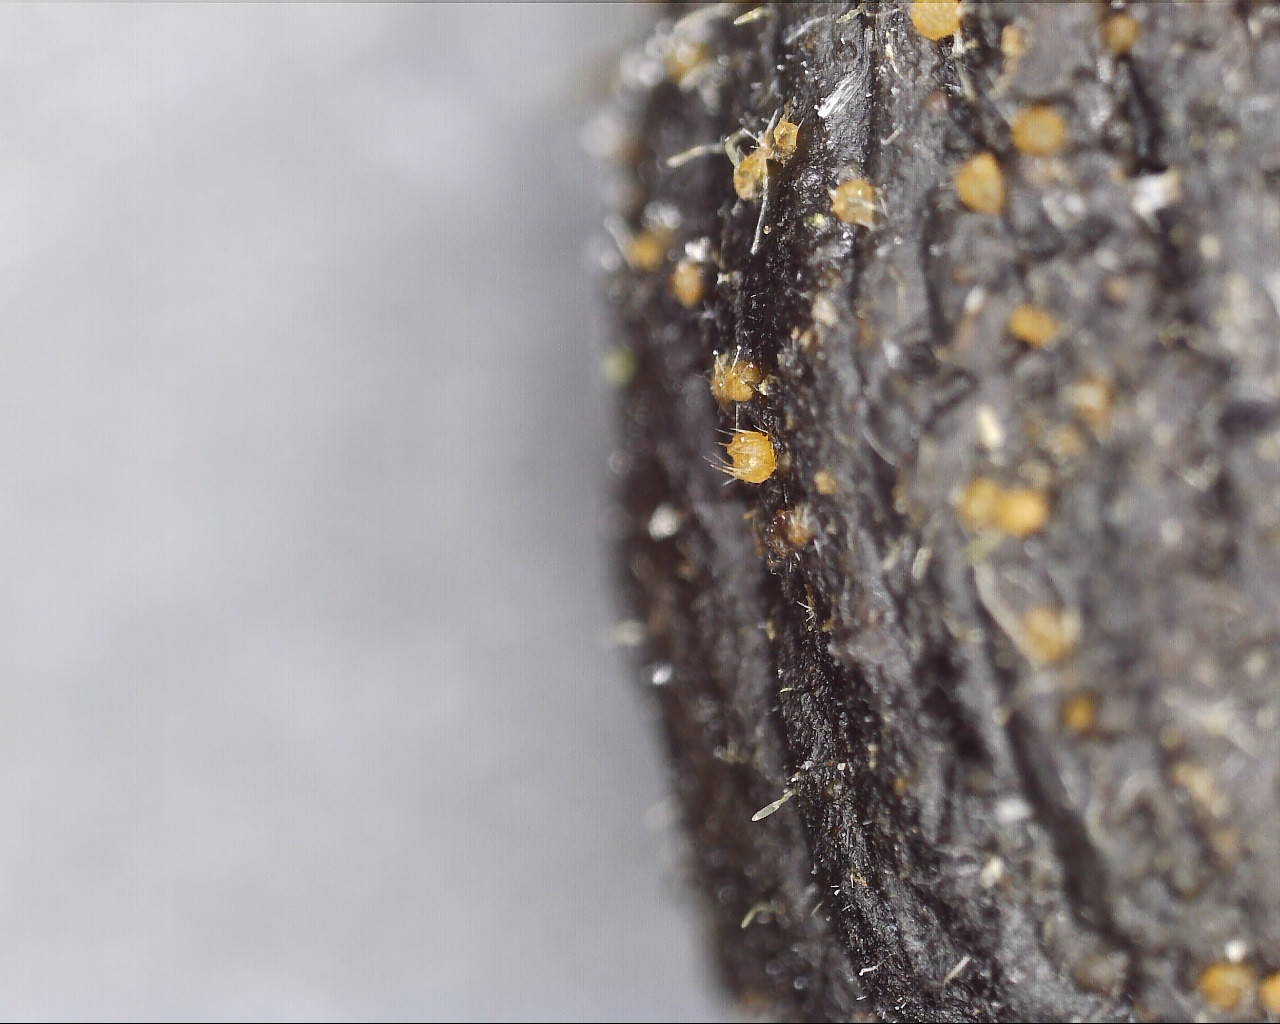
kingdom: Fungi
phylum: Ascomycota
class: Pezizomycetes
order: Pezizales
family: Ascodesmidaceae
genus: Lasiobolus
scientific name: Lasiobolus cuniculi
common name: toradet øjebæger
